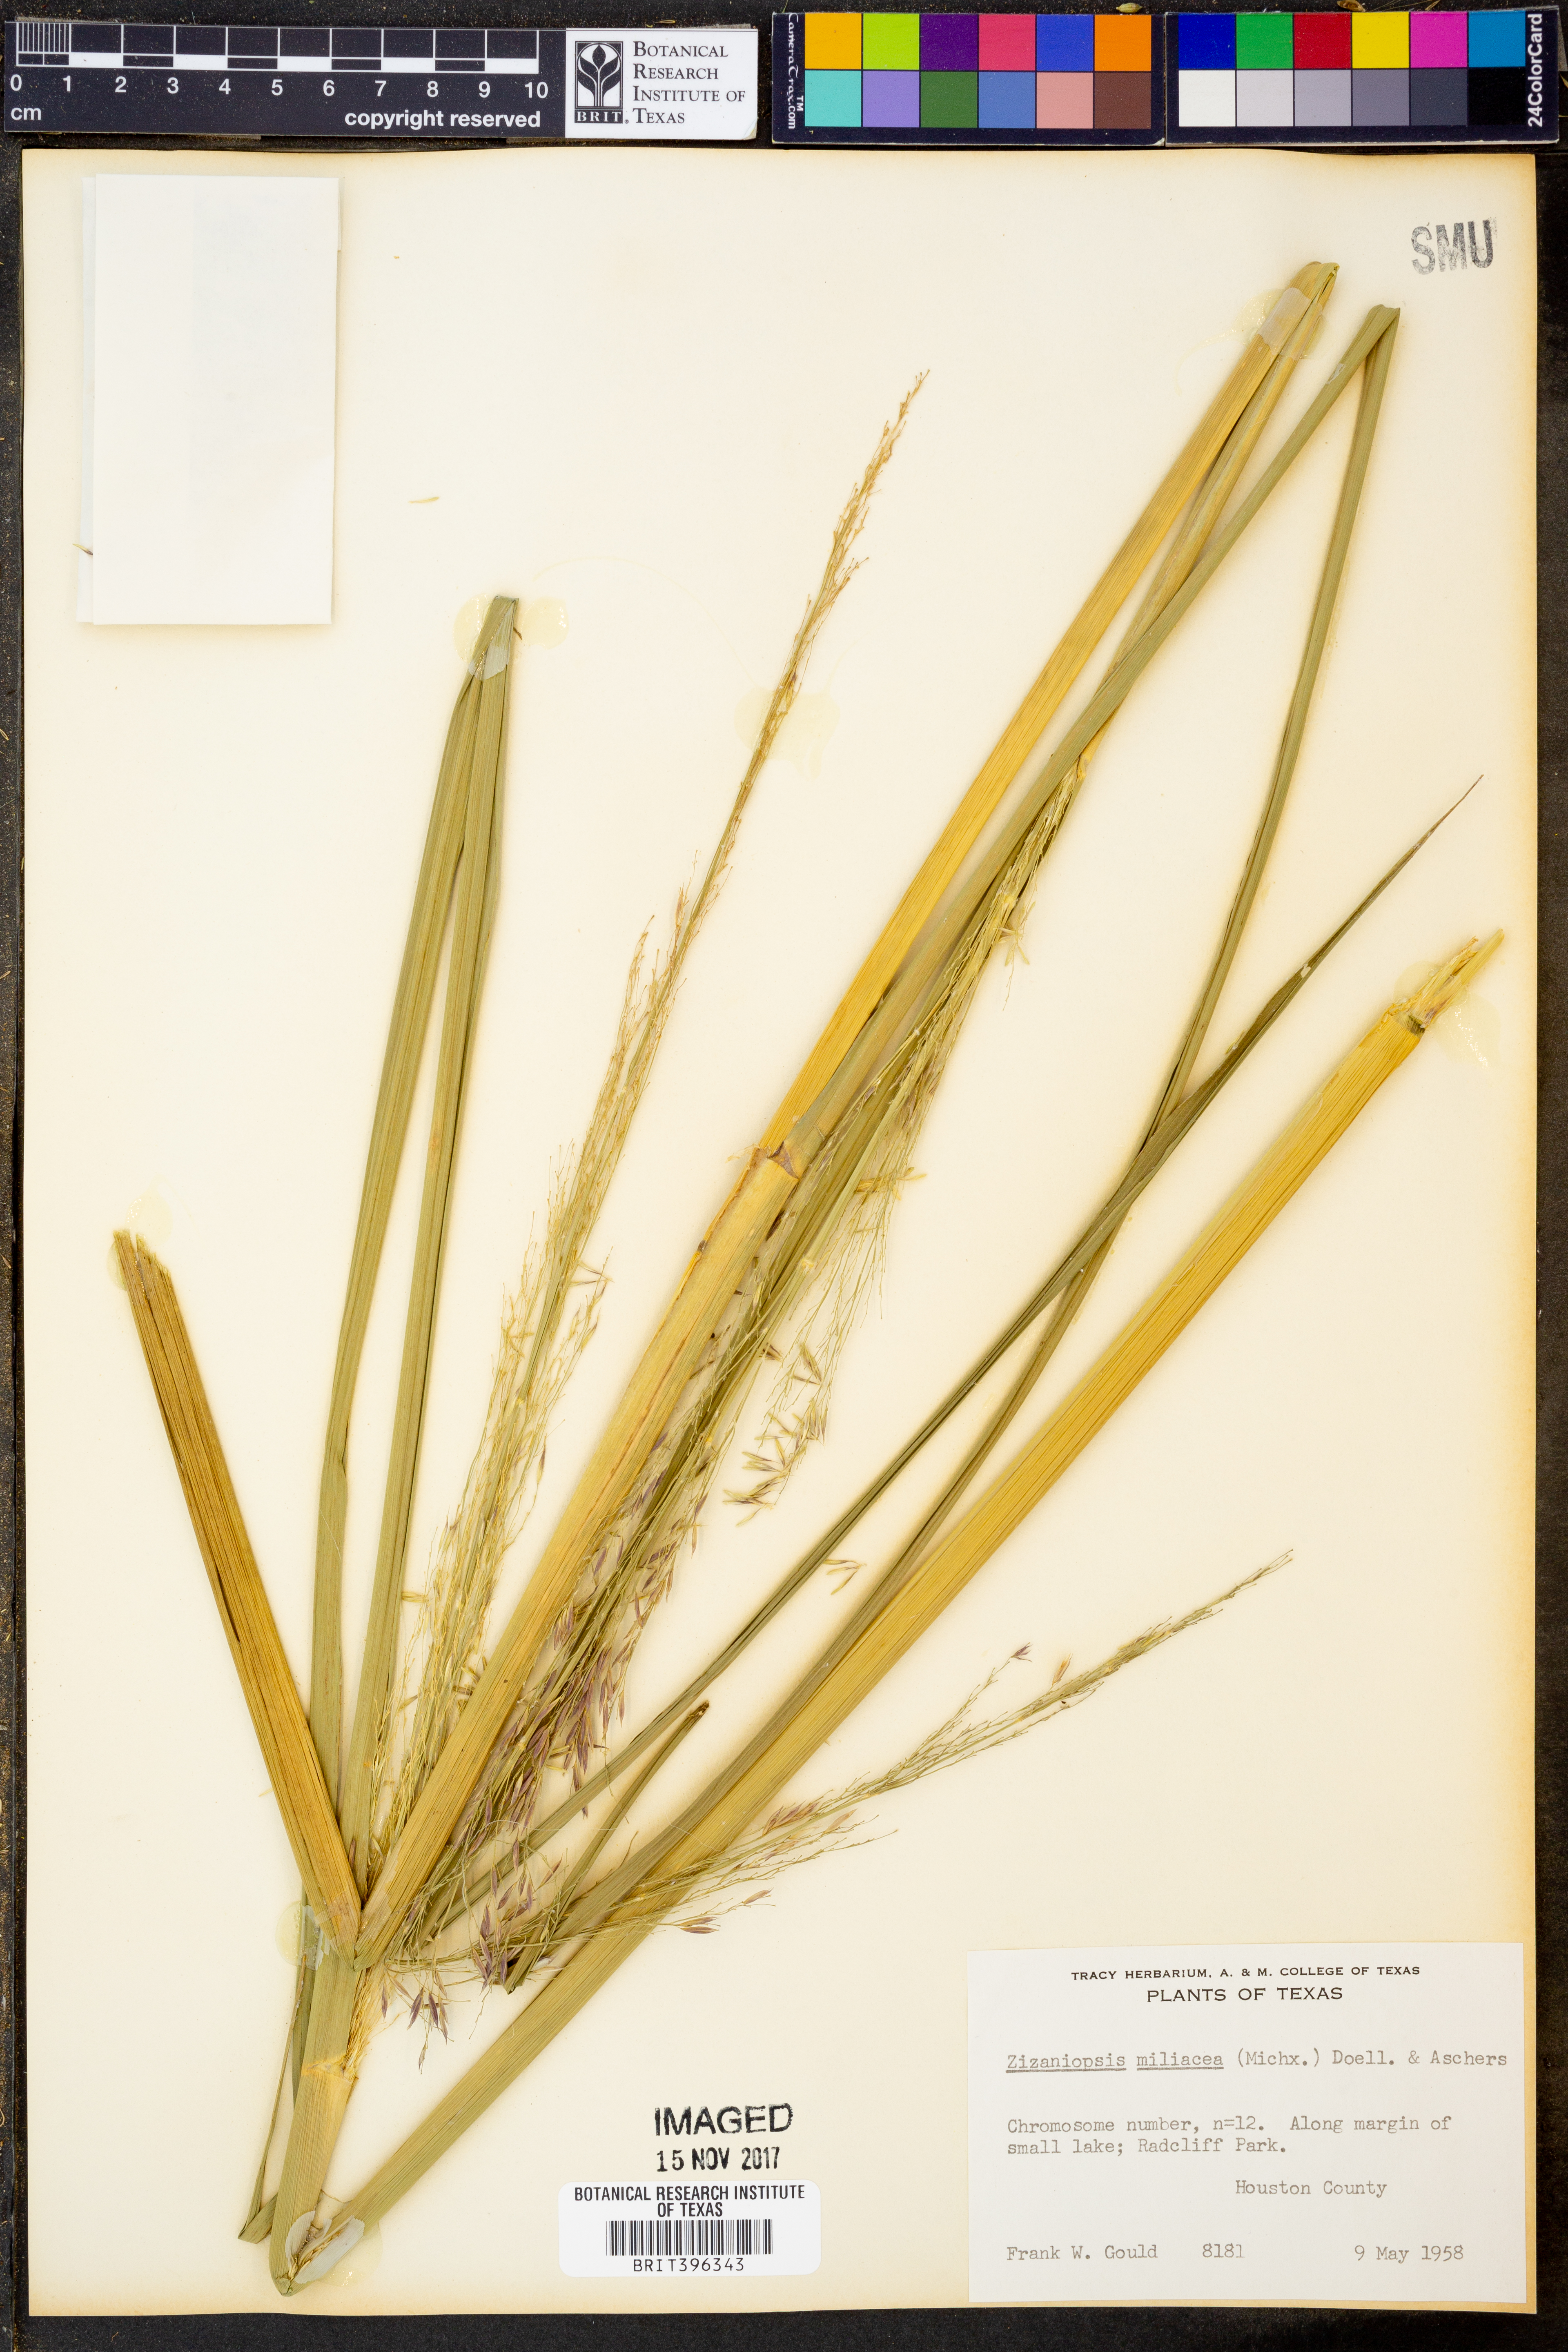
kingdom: Plantae
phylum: Tracheophyta
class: Liliopsida
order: Poales
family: Poaceae
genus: Zizaniopsis
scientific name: Zizaniopsis miliacea
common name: Giant-cutgrass
